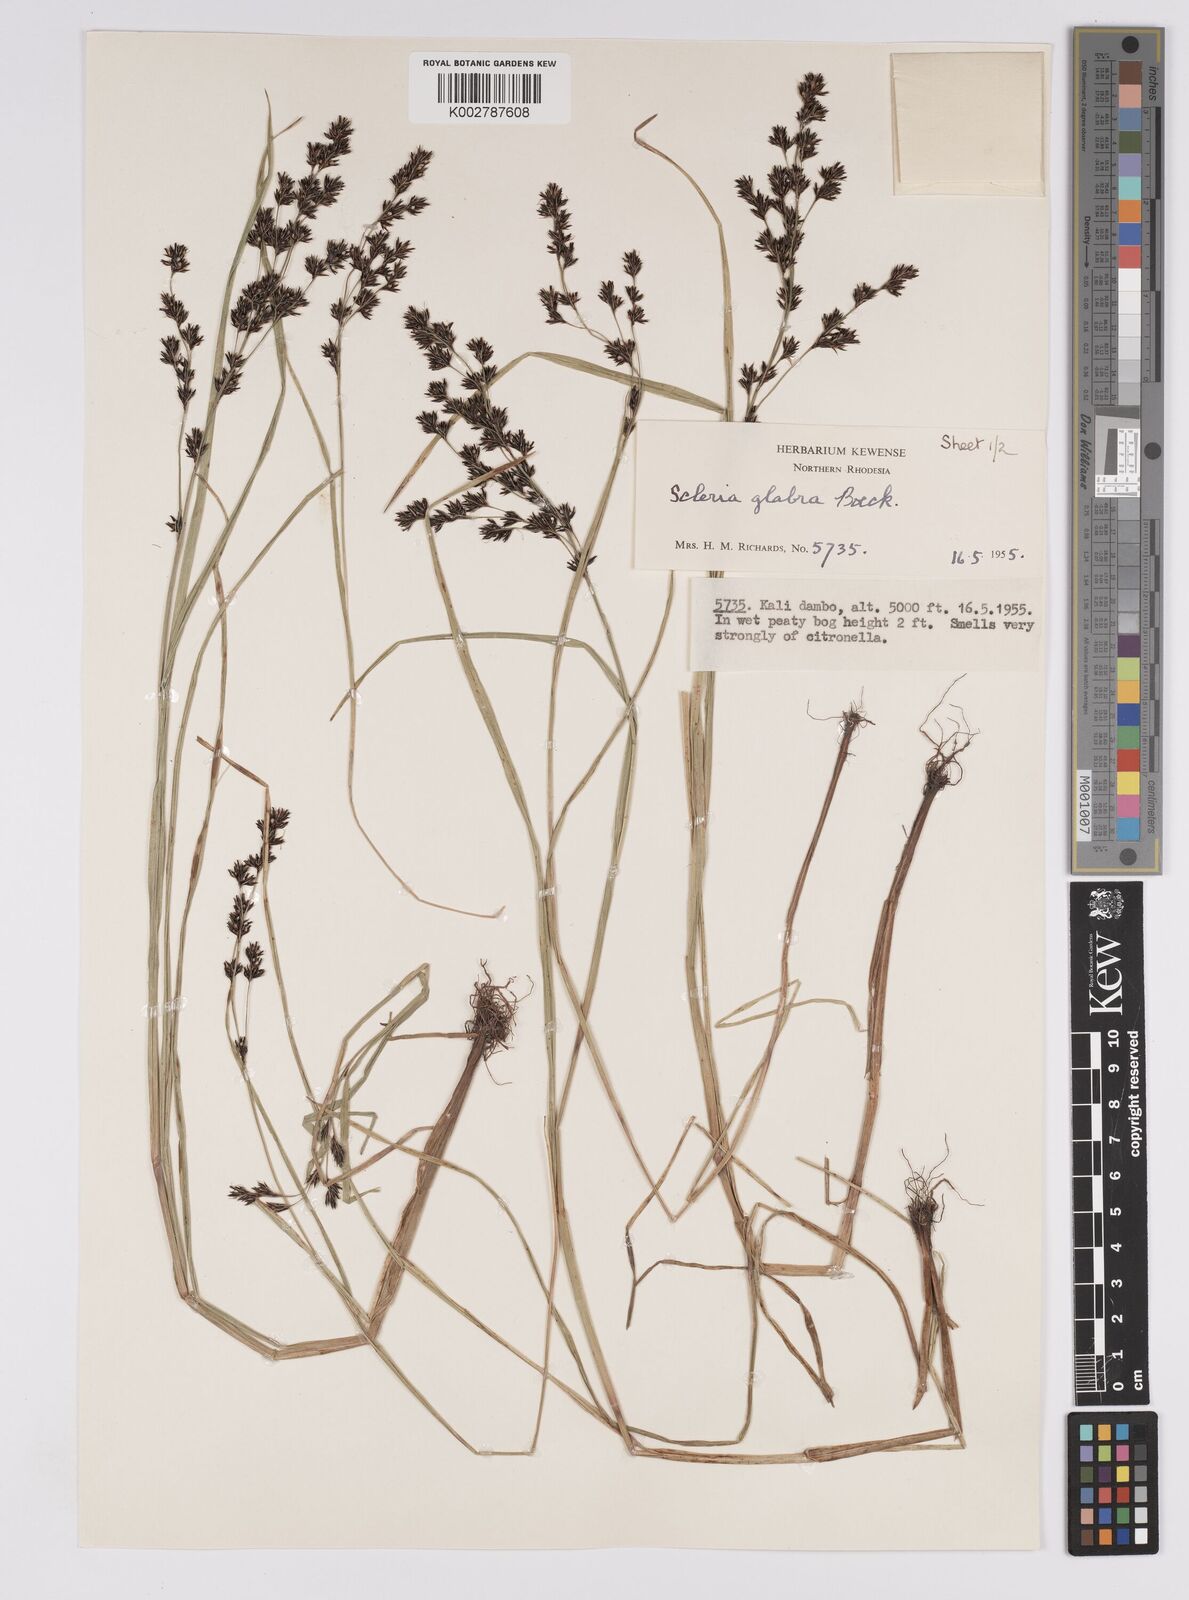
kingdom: Plantae
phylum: Tracheophyta
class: Liliopsida
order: Poales
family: Cyperaceae
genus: Scleria
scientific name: Scleria glabra
